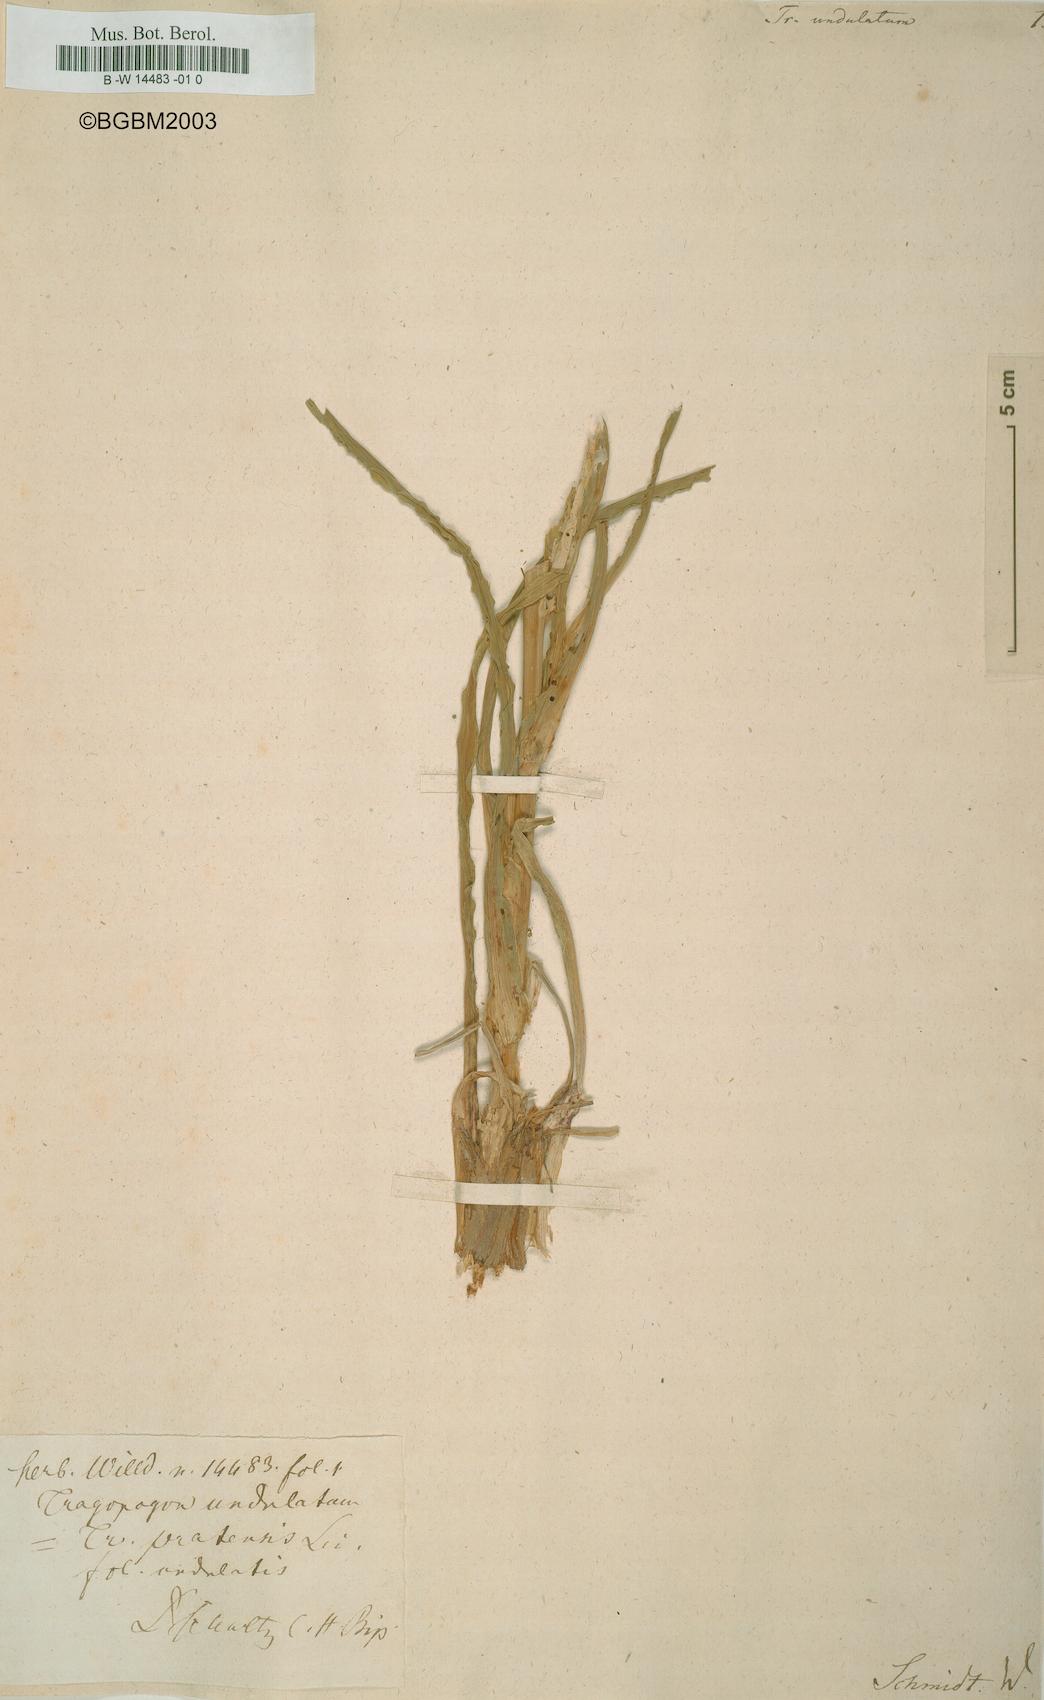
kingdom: Plantae
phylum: Tracheophyta
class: Magnoliopsida
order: Asterales
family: Asteraceae
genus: Tragopogon
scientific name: Tragopogon undulatus
